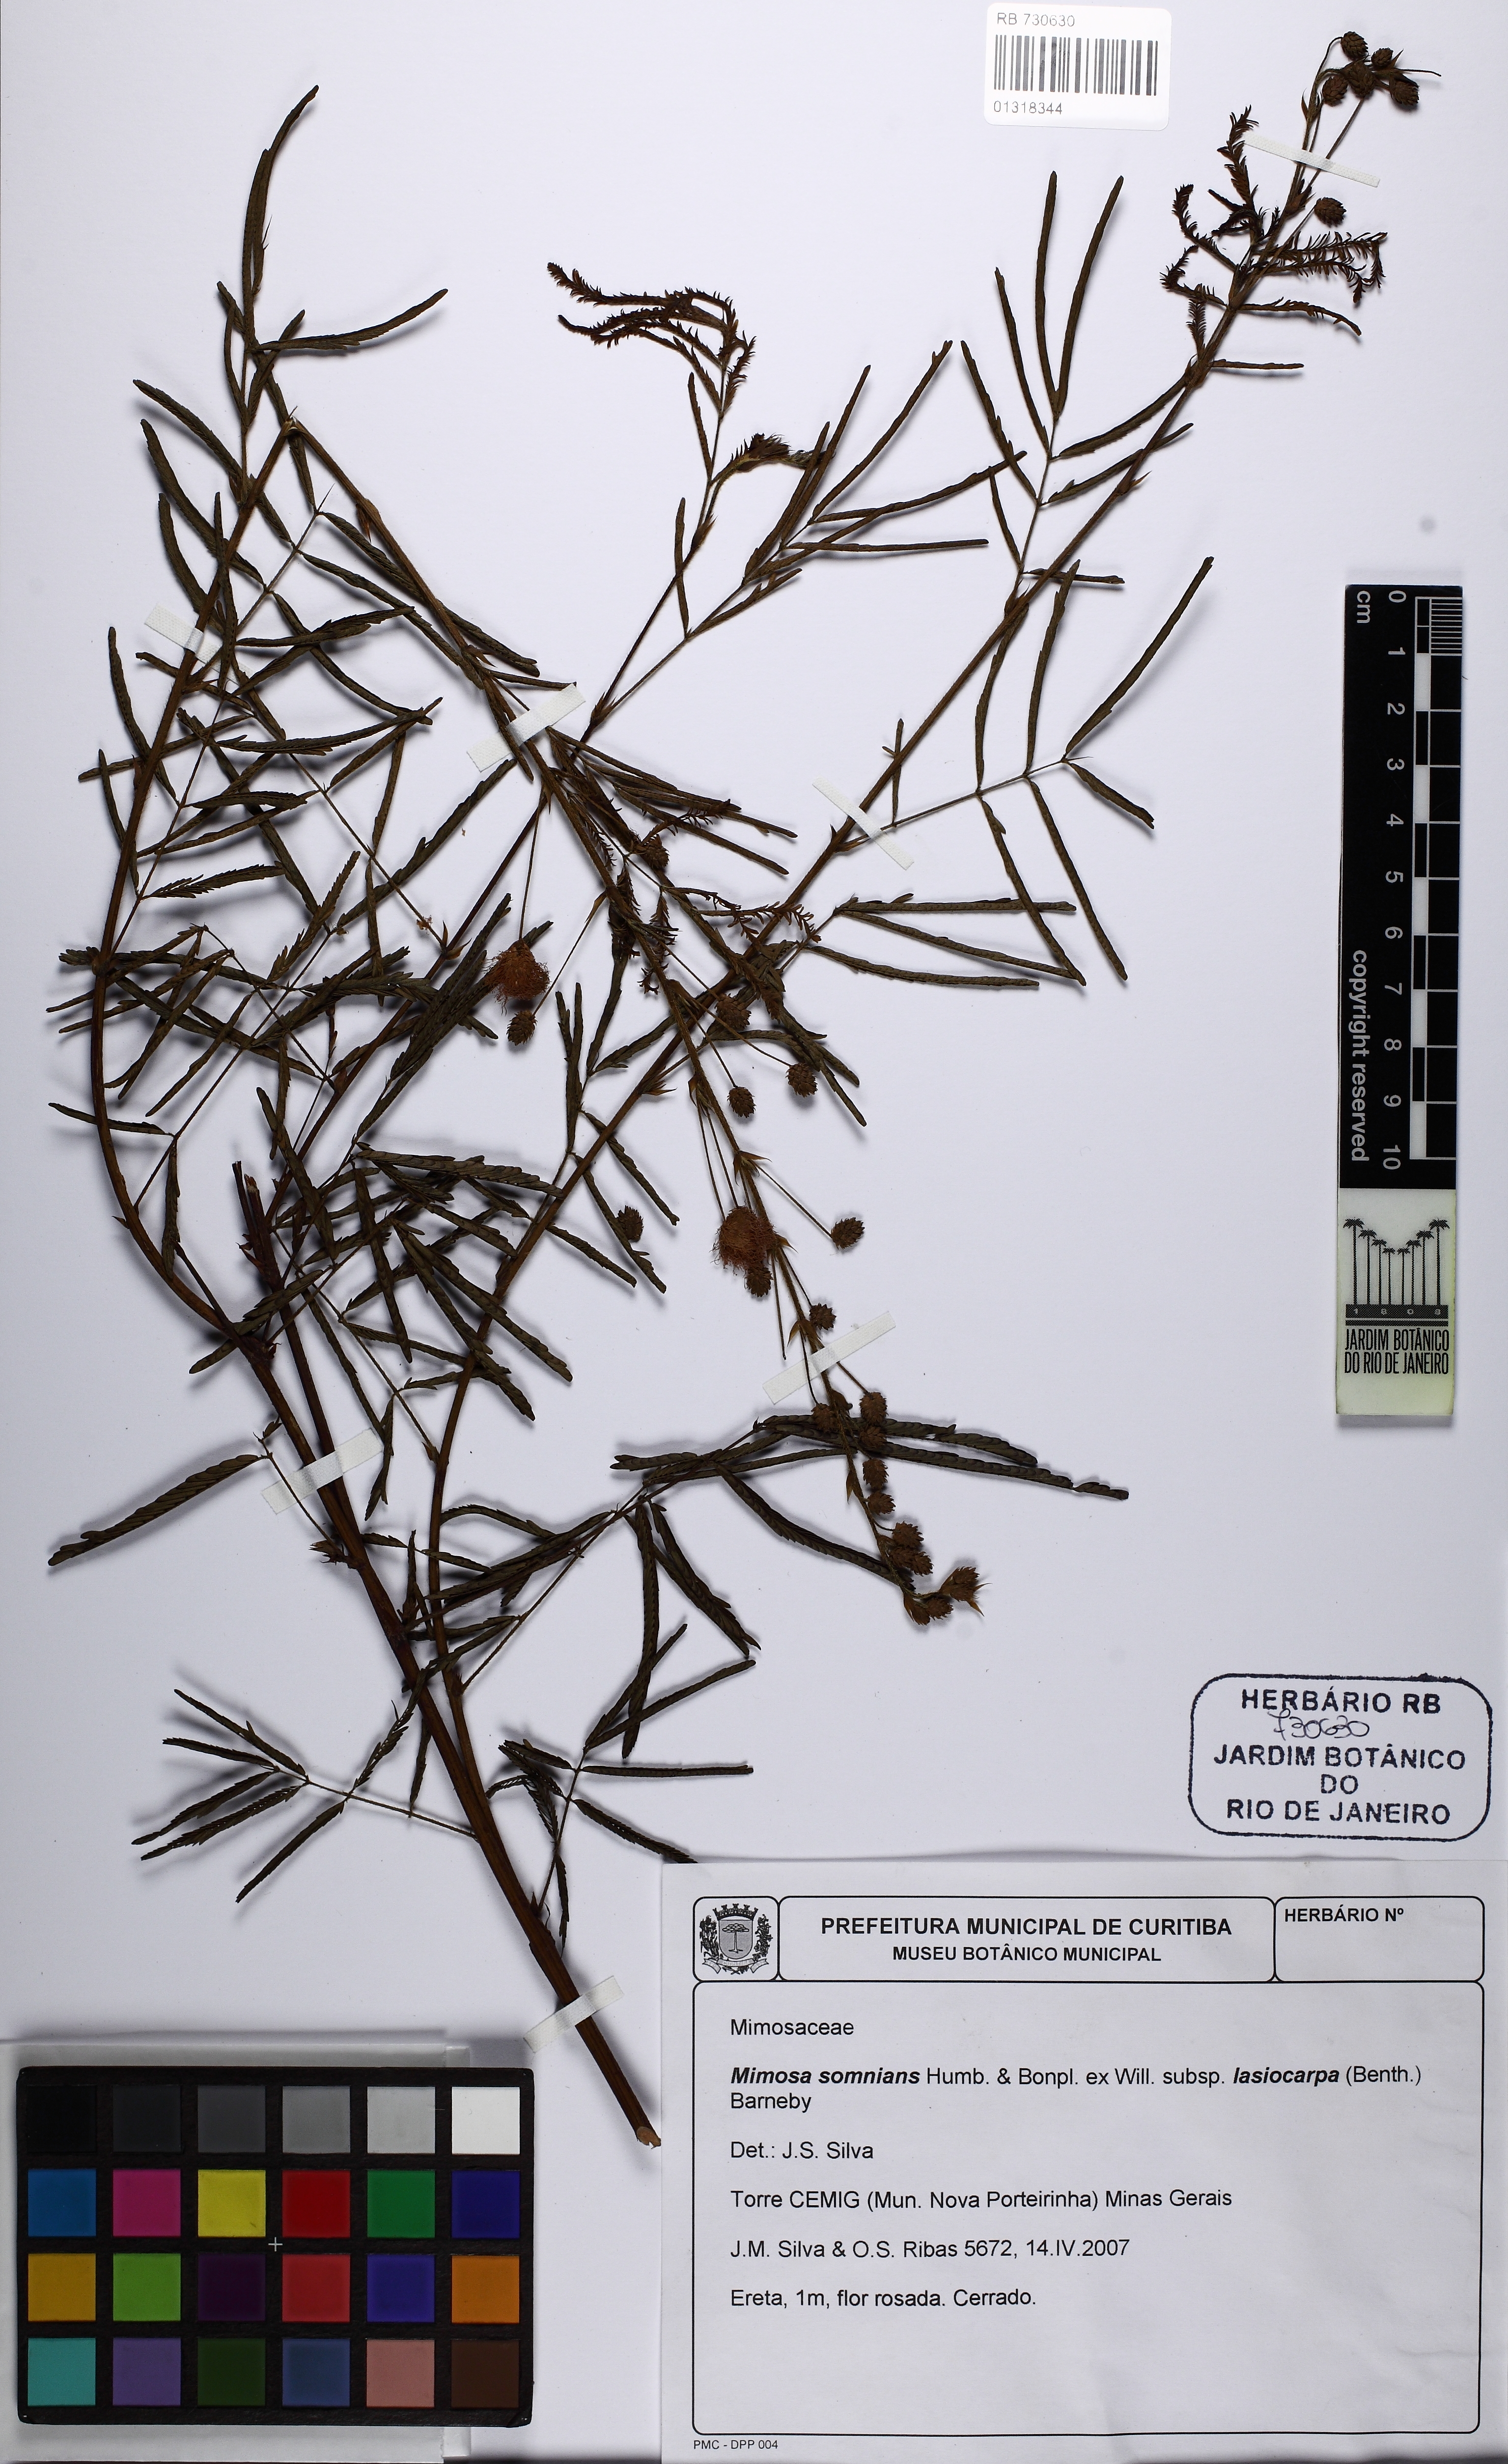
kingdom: Plantae
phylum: Tracheophyta
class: Magnoliopsida
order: Fabales
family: Fabaceae
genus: Mimosa
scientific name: Mimosa somnians
